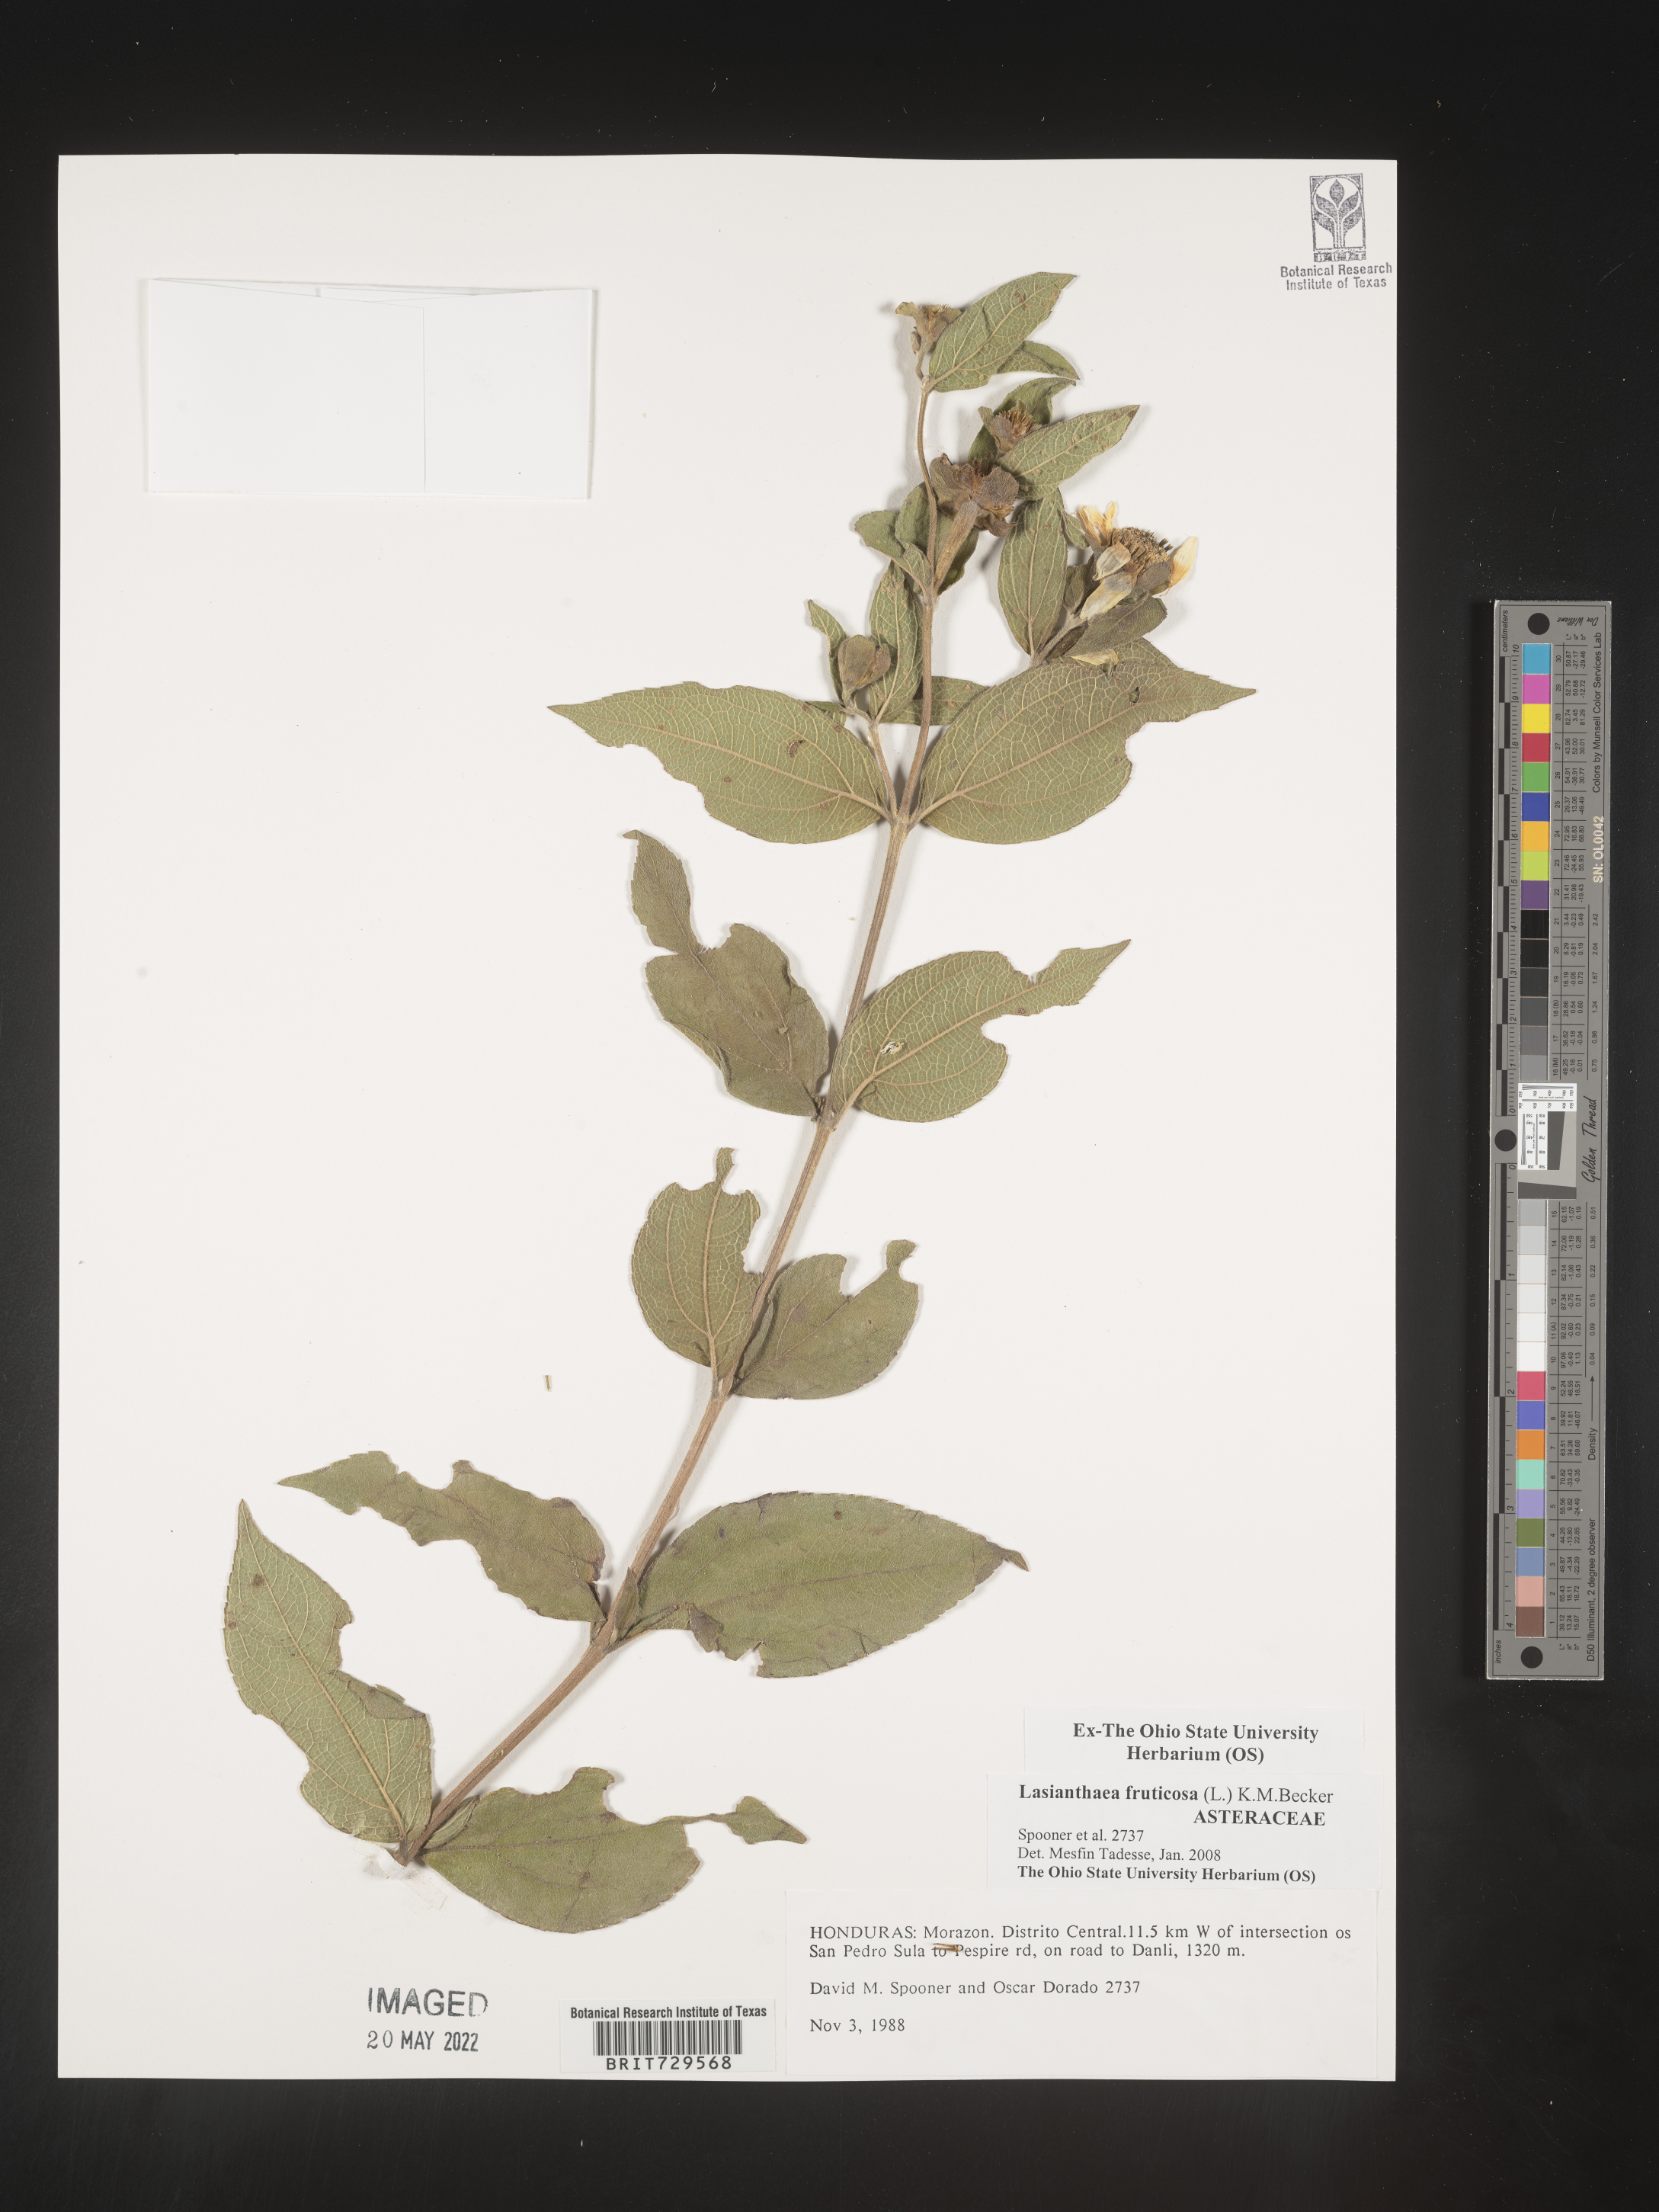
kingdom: Plantae
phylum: Tracheophyta
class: Magnoliopsida
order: Asterales
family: Asteraceae
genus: Lasianthaea
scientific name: Lasianthaea
